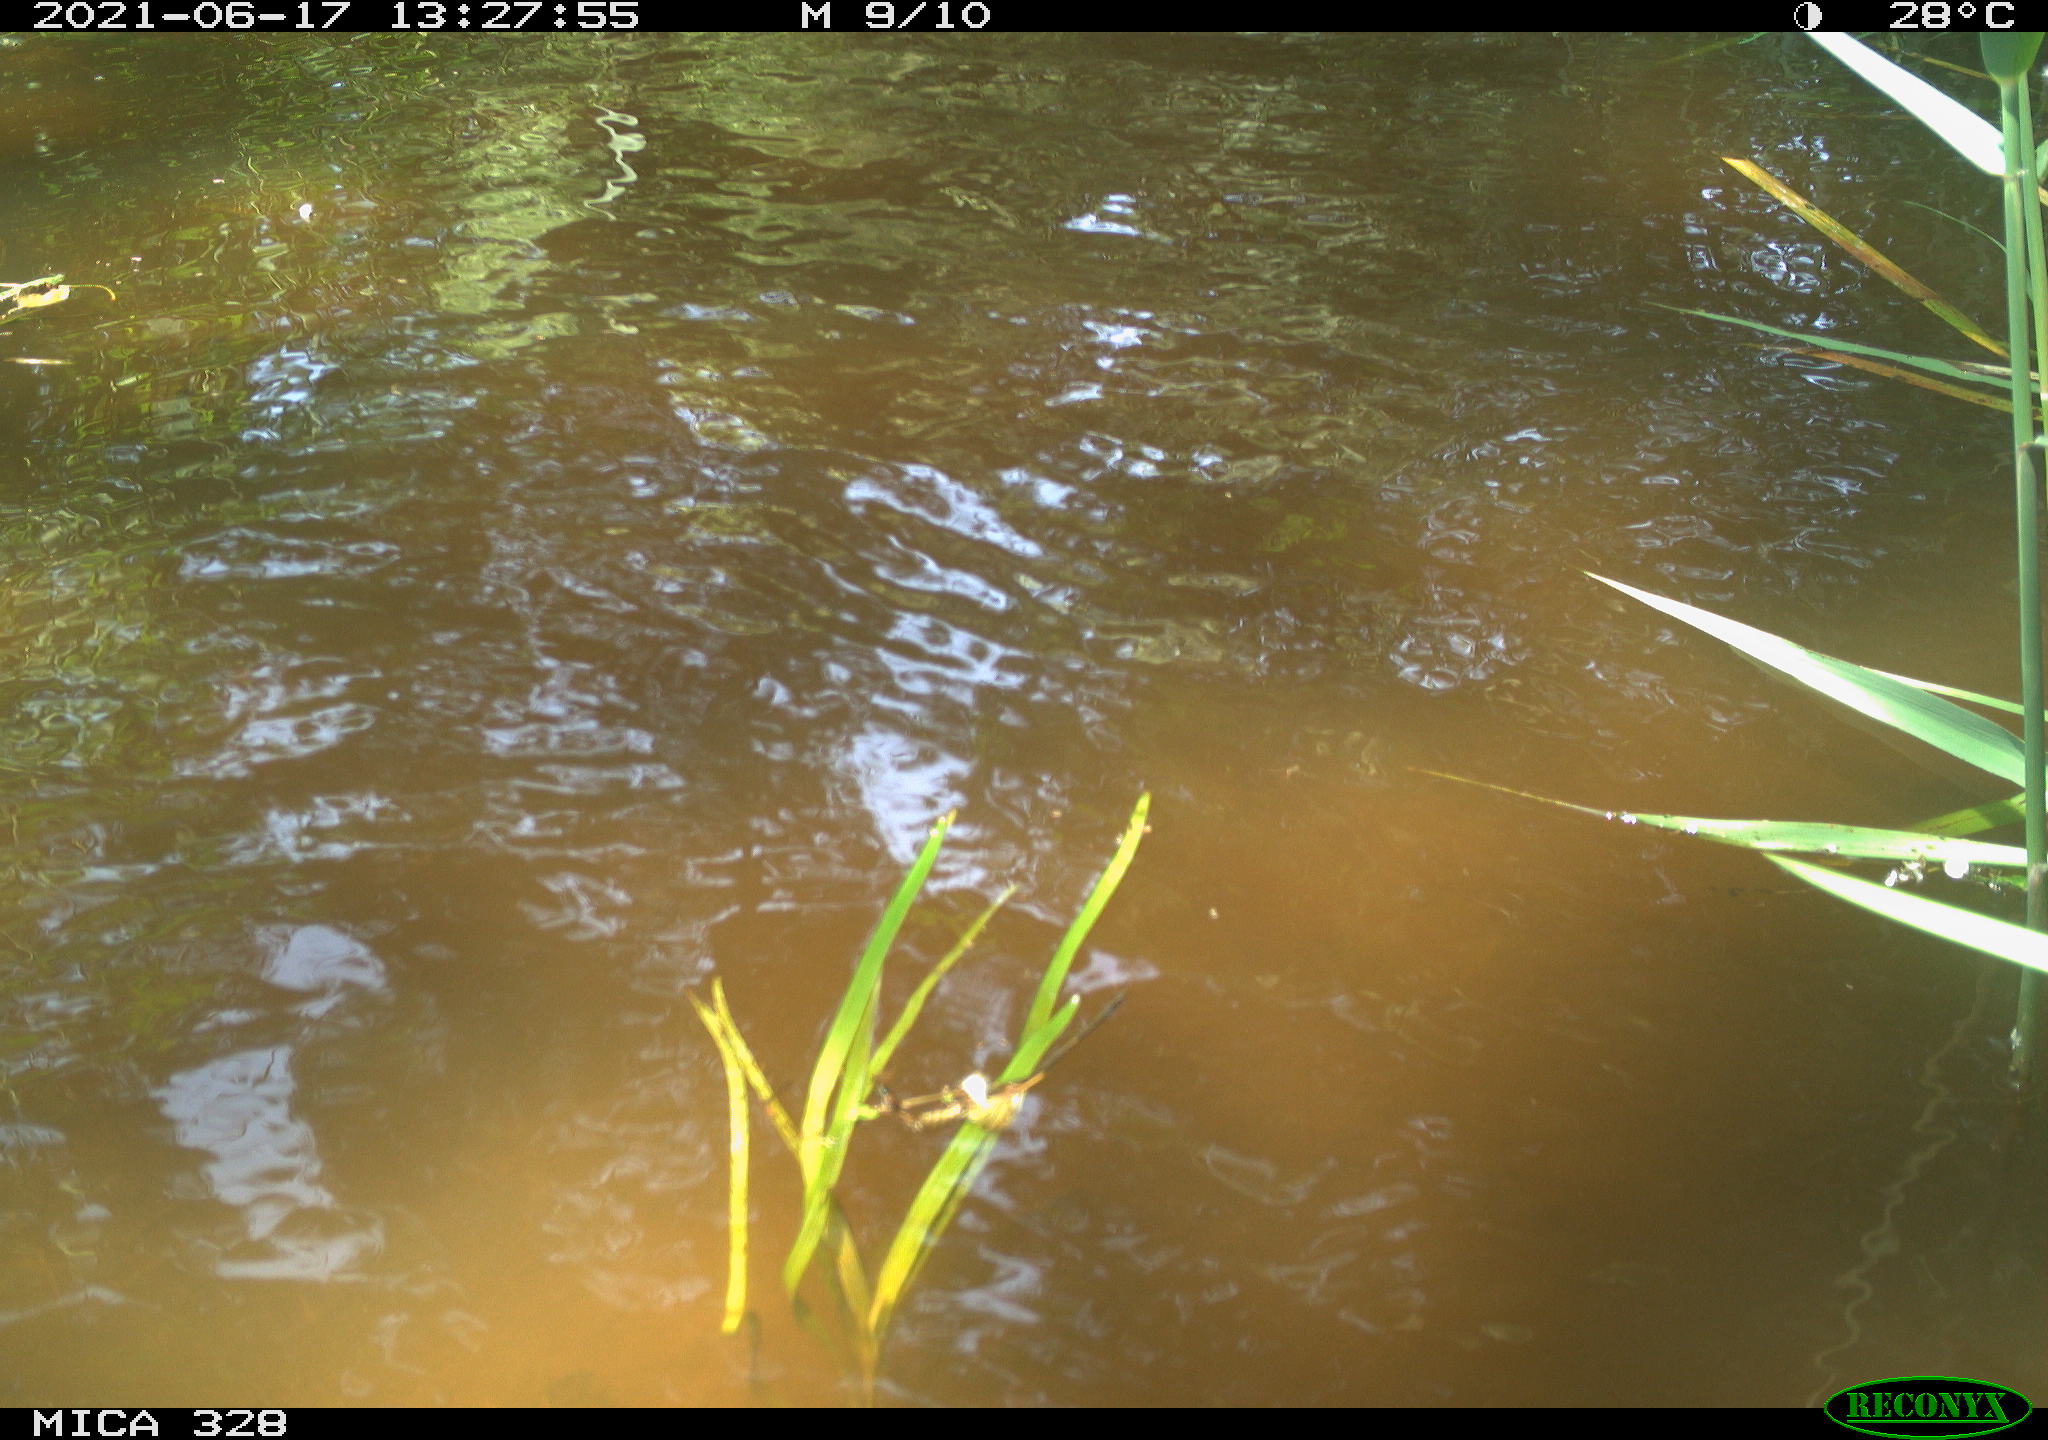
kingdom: Animalia
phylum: Chordata
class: Mammalia
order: Rodentia
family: Cricetidae
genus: Ondatra
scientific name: Ondatra zibethicus
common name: Muskrat
